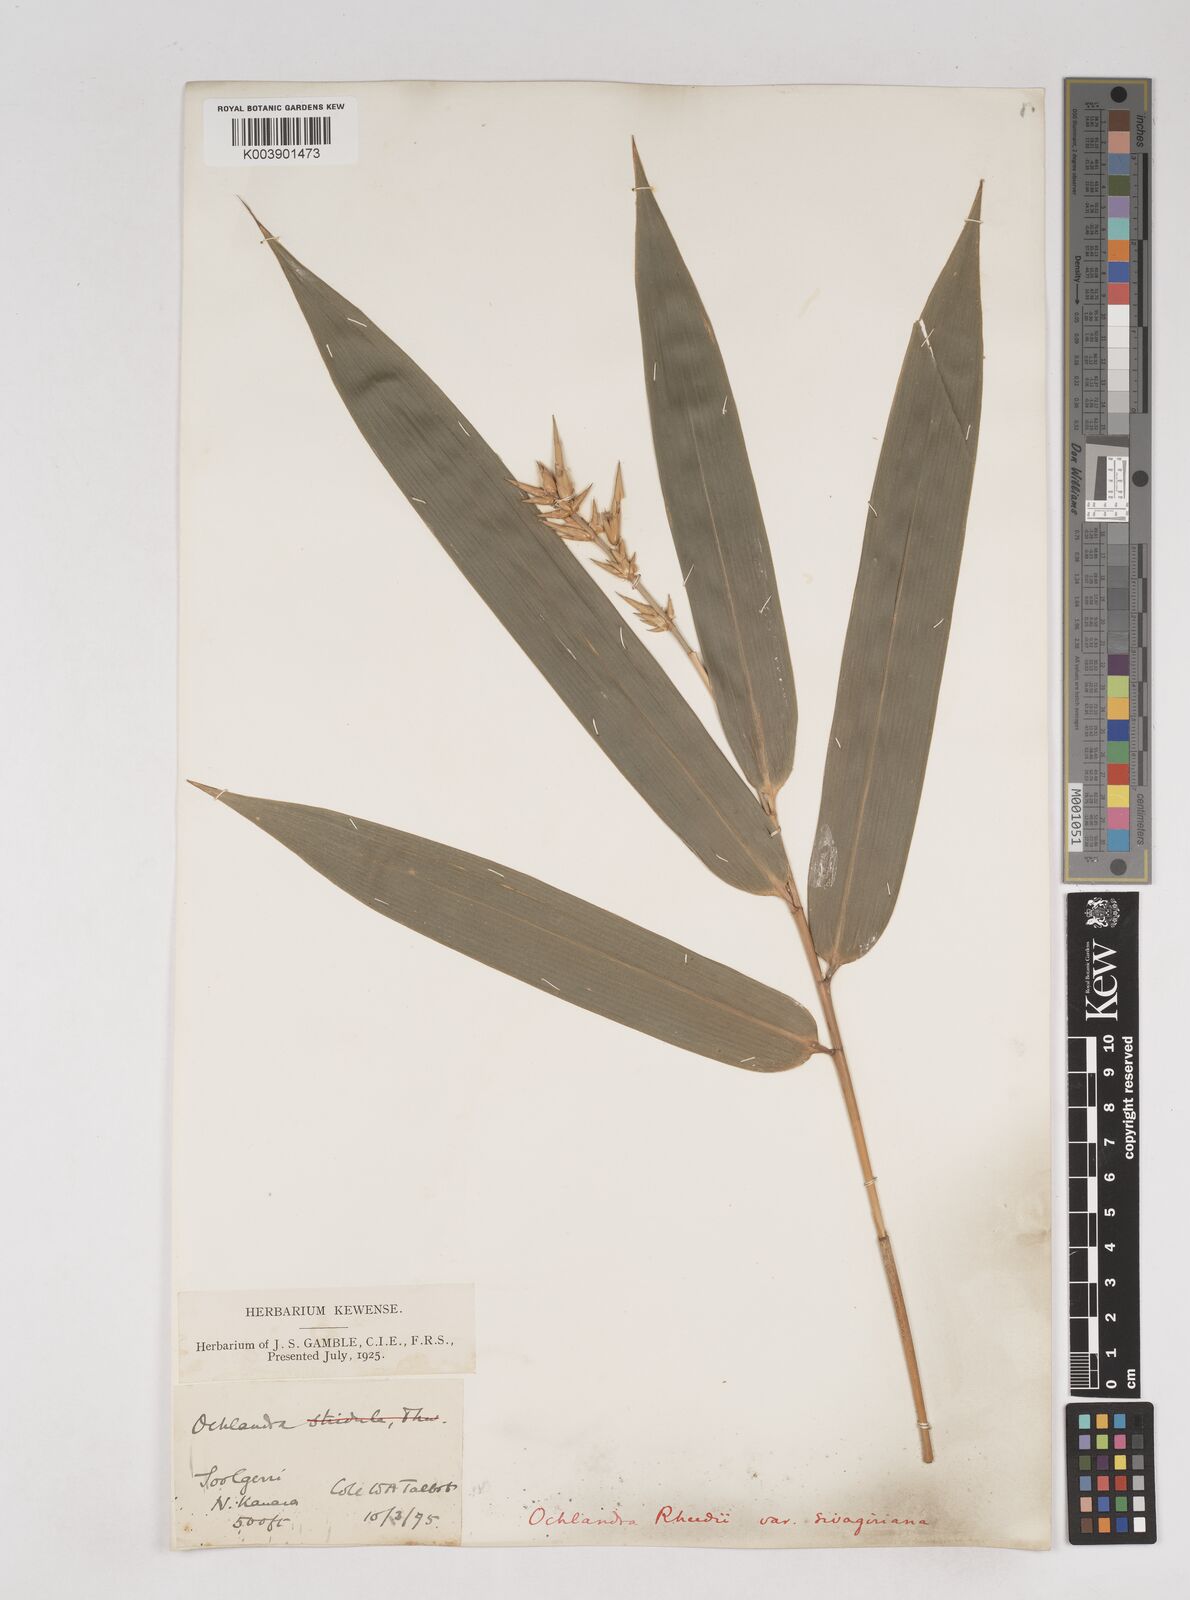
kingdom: Plantae
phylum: Tracheophyta
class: Liliopsida
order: Poales
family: Poaceae
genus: Ochlandra
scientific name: Ochlandra scriptoria
